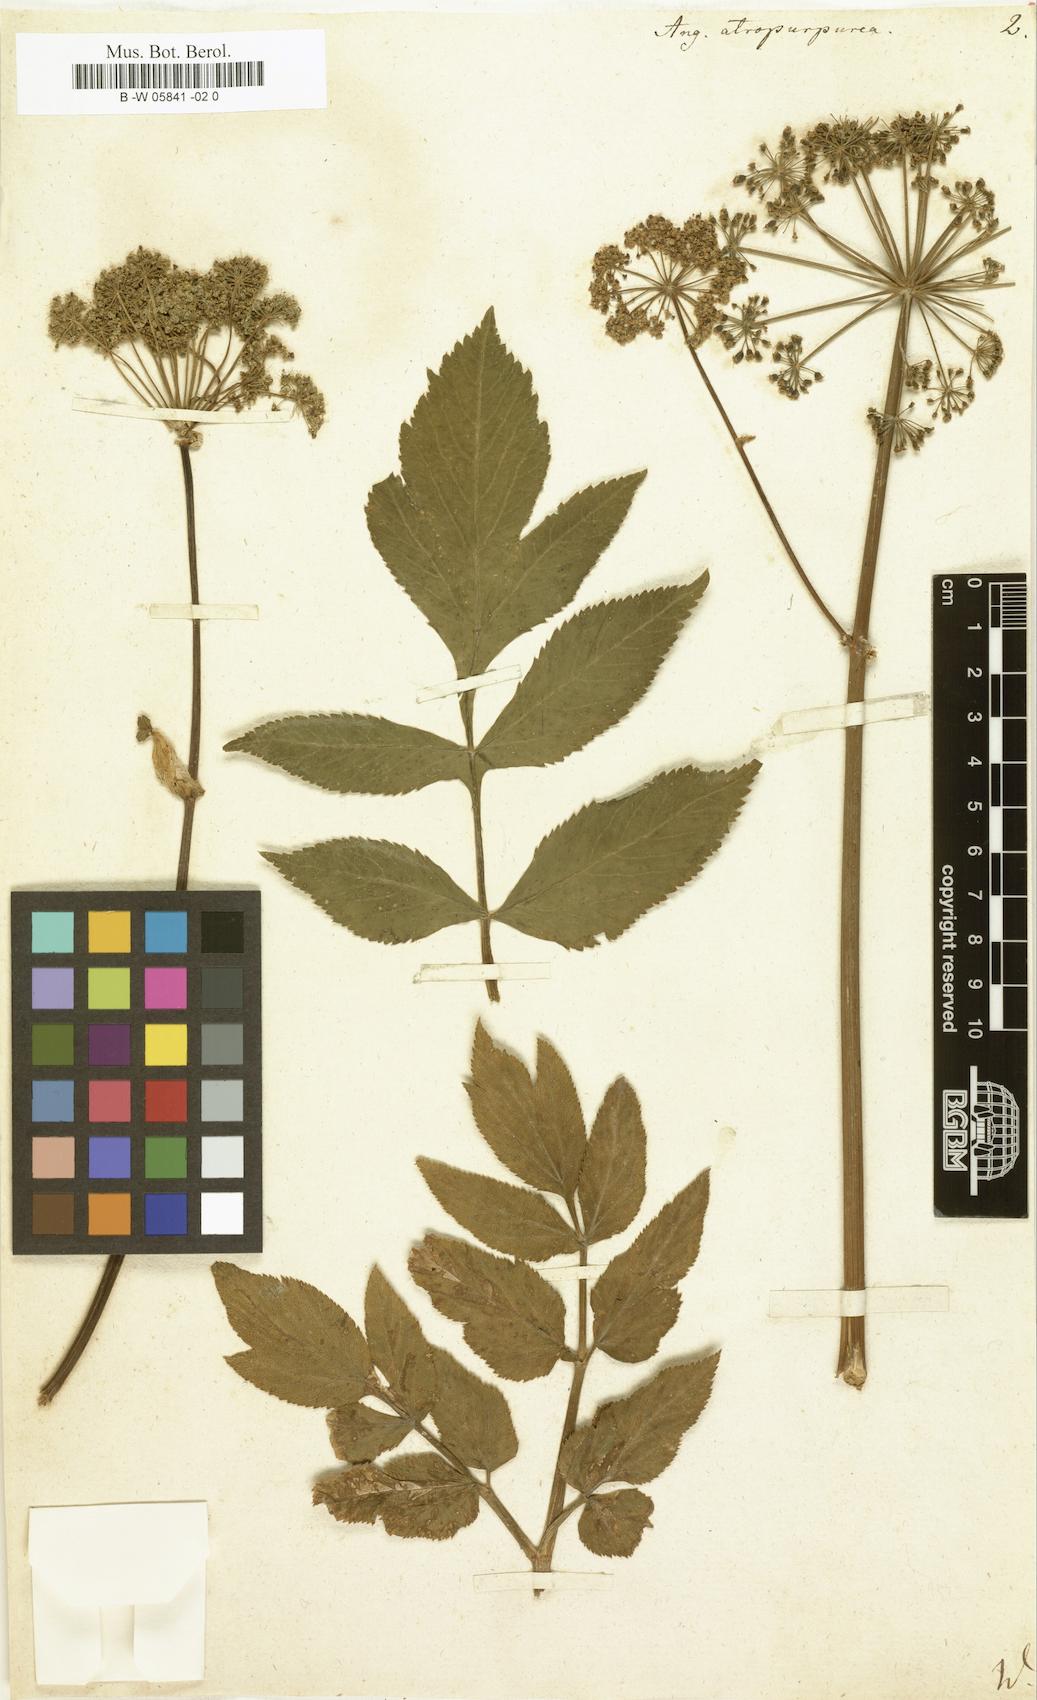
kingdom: Plantae
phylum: Tracheophyta
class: Magnoliopsida
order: Apiales
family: Apiaceae
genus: Angelica
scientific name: Angelica atropurpurea
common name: Great angelica
